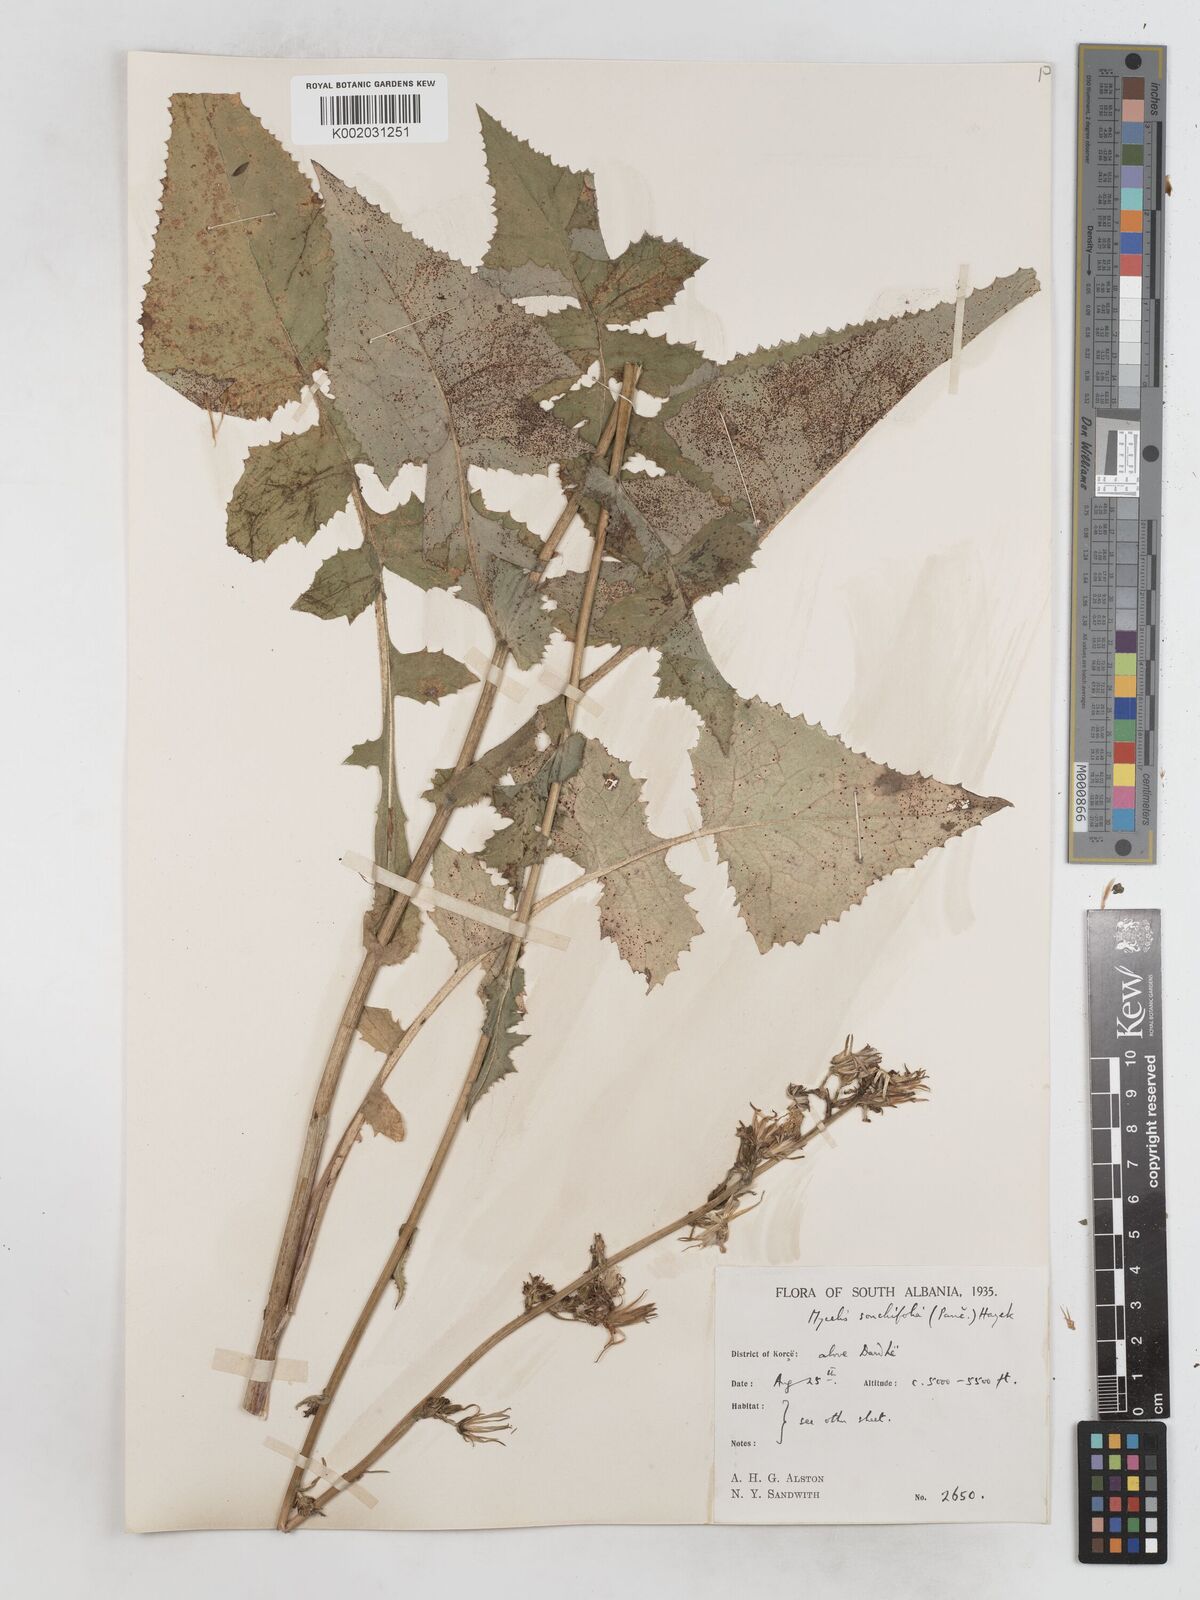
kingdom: Plantae
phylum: Tracheophyta
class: Magnoliopsida
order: Asterales
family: Asteraceae
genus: Lactuca
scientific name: Lactuca sonchifolia
